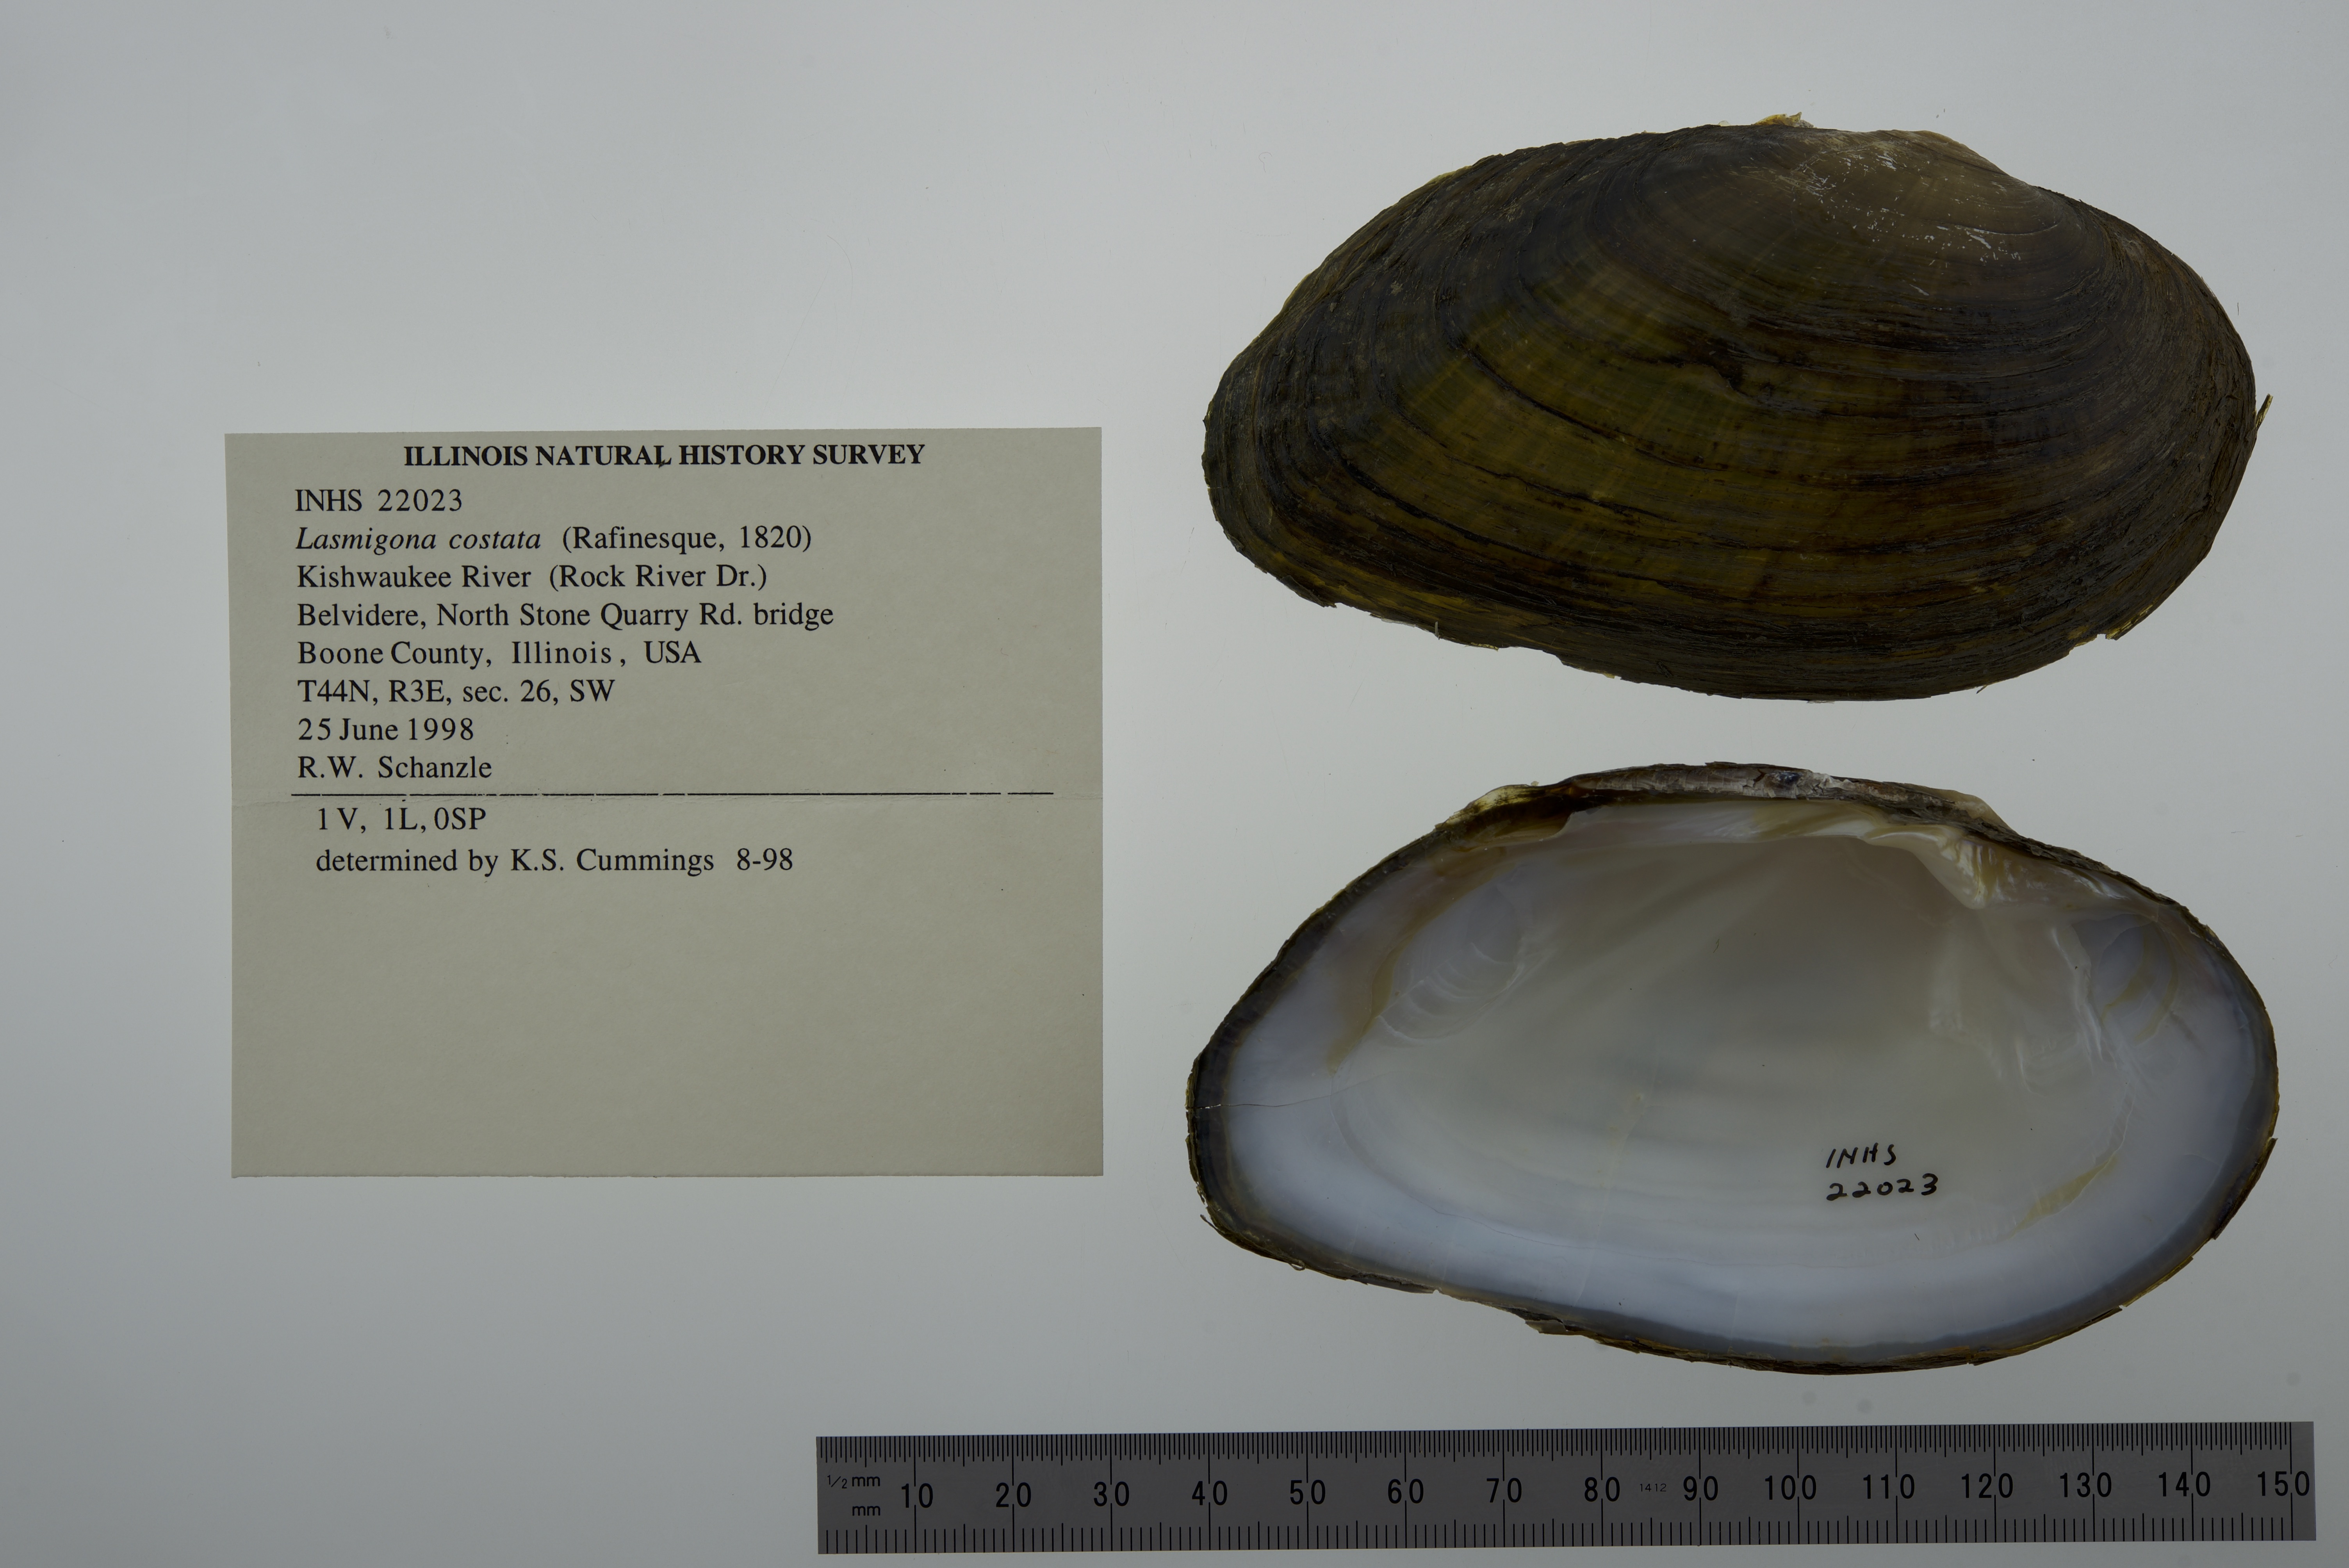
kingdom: Animalia
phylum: Mollusca
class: Bivalvia
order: Unionida
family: Unionidae
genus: Lasmigona
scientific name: Lasmigona costata
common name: Flutedshell
